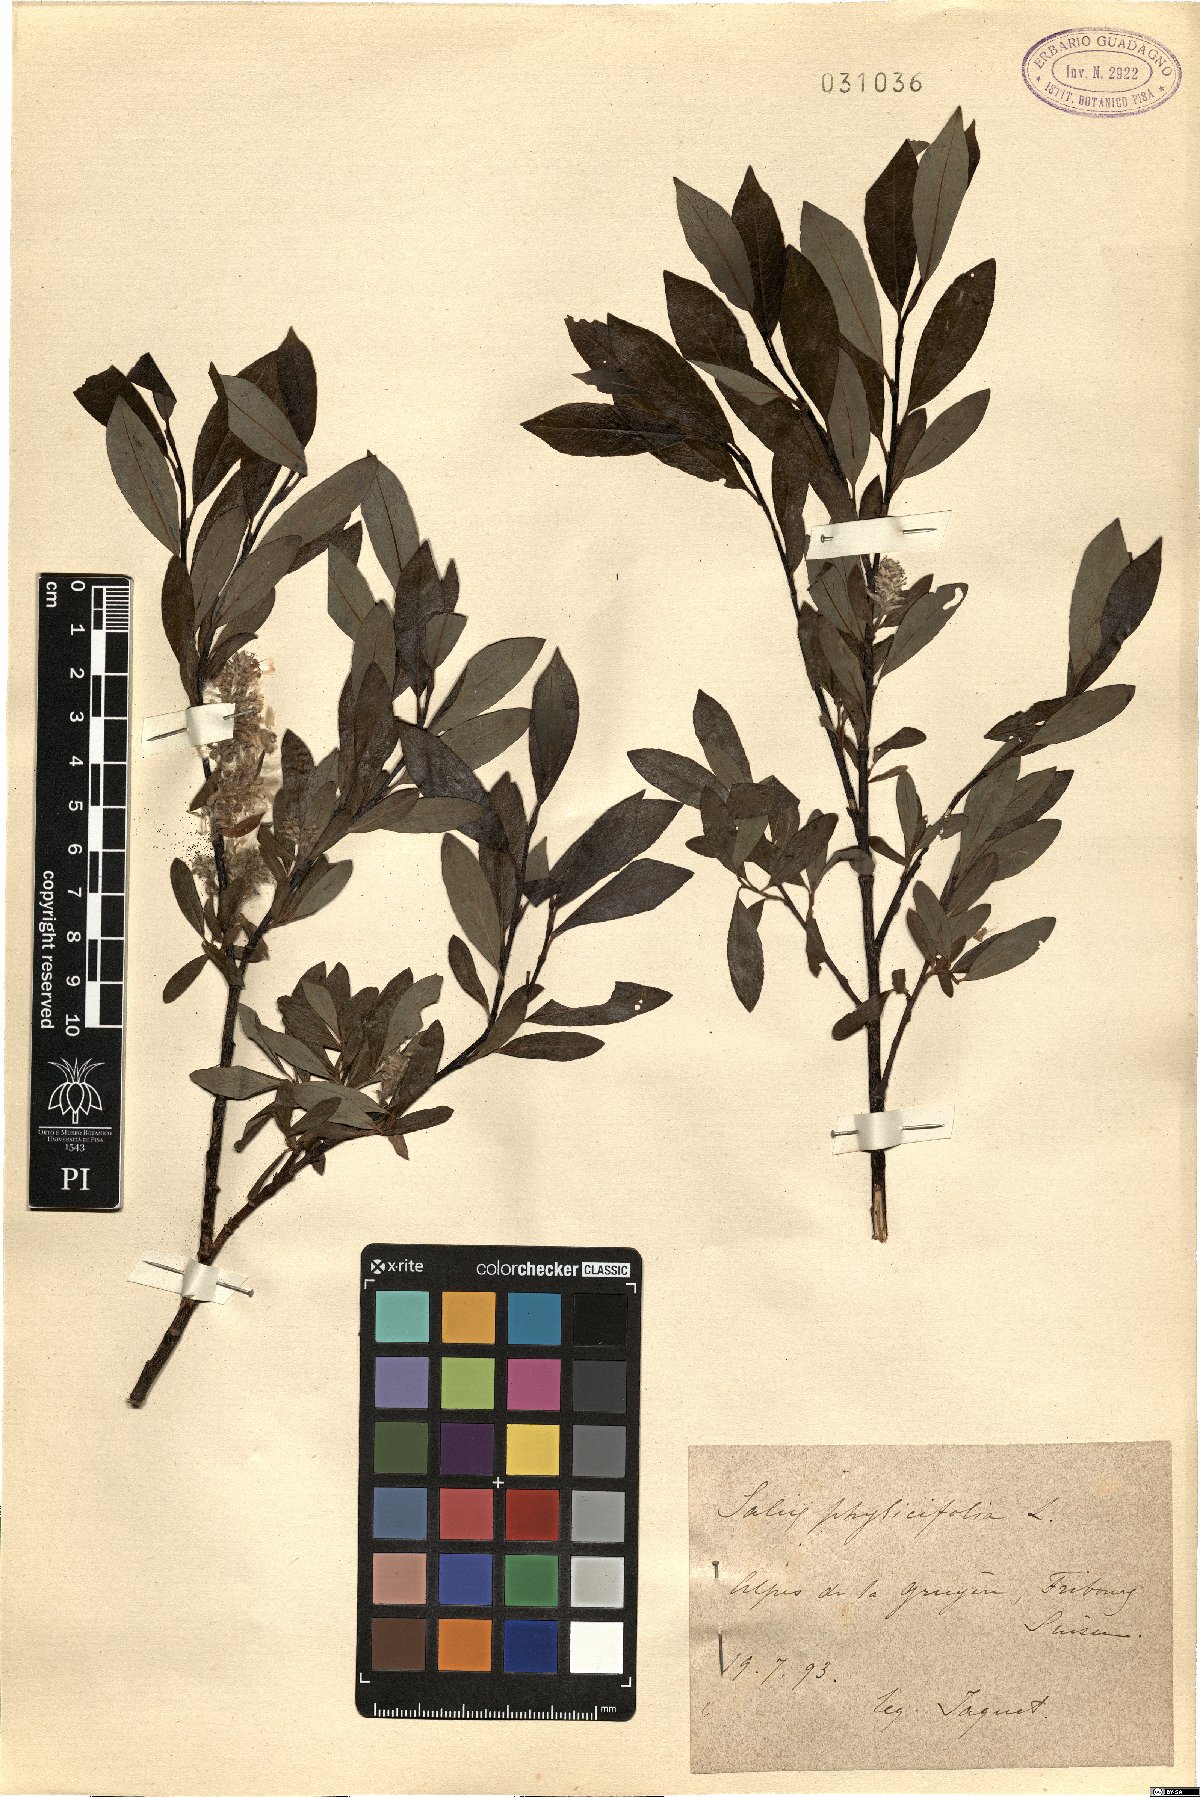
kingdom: Plantae
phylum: Tracheophyta
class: Magnoliopsida
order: Malpighiales
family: Salicaceae
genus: Salix
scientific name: Salix phylicifolia
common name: Tea-leaved willow
